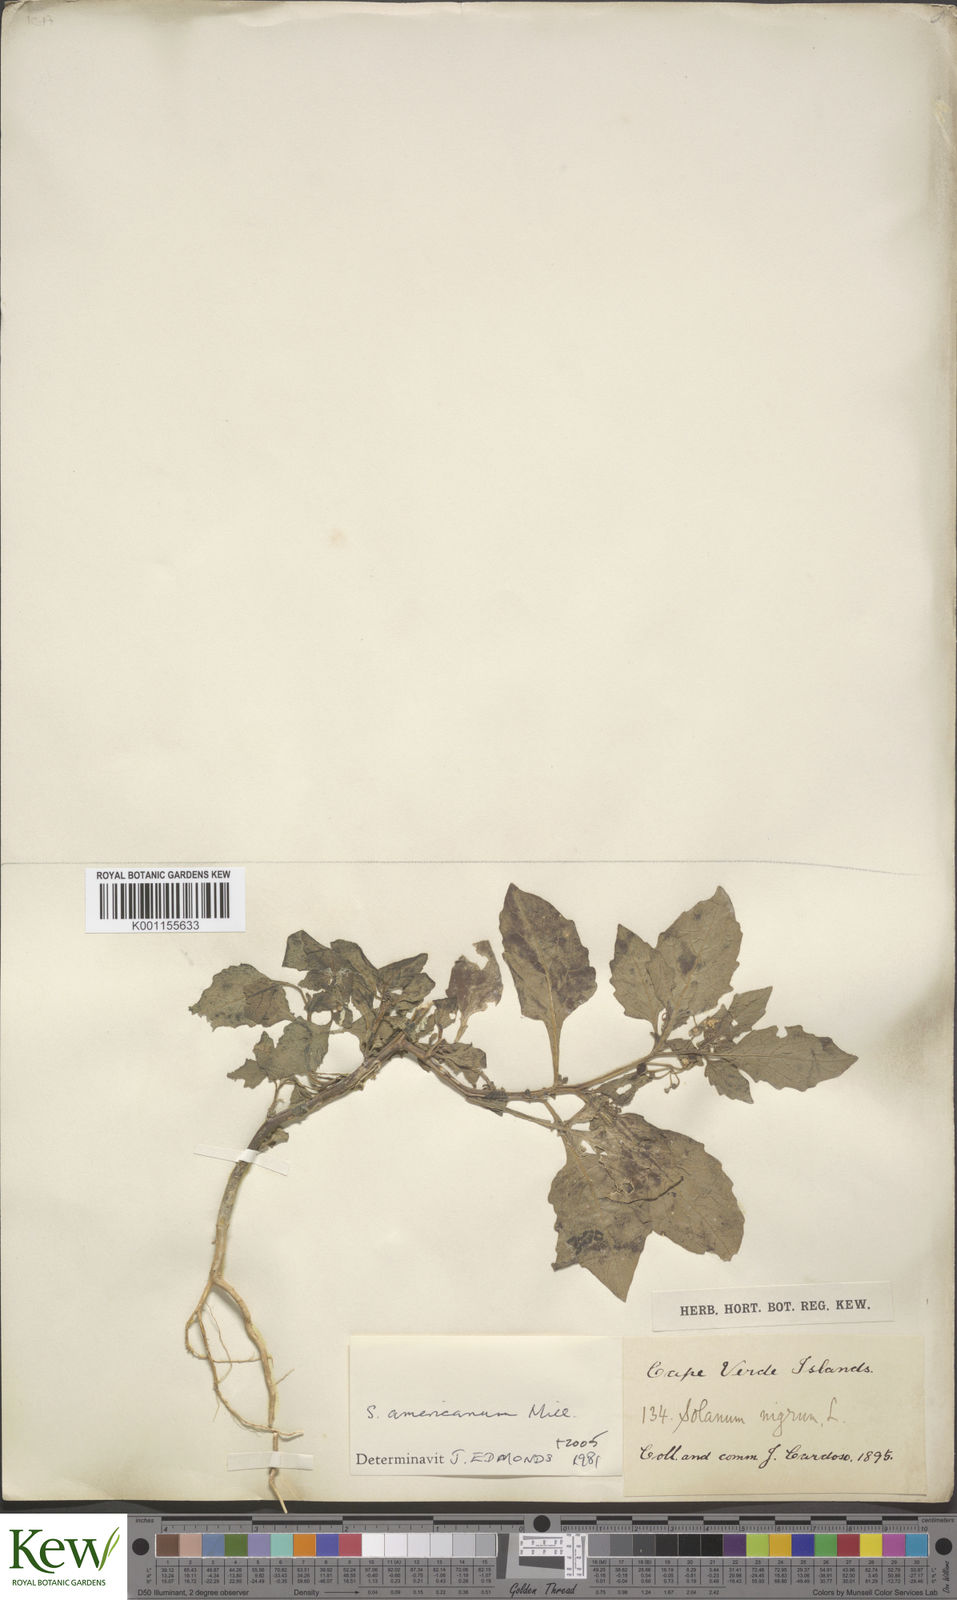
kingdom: Plantae
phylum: Tracheophyta
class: Magnoliopsida
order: Solanales
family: Solanaceae
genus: Solanum
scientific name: Solanum americanum
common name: American black nightshade
